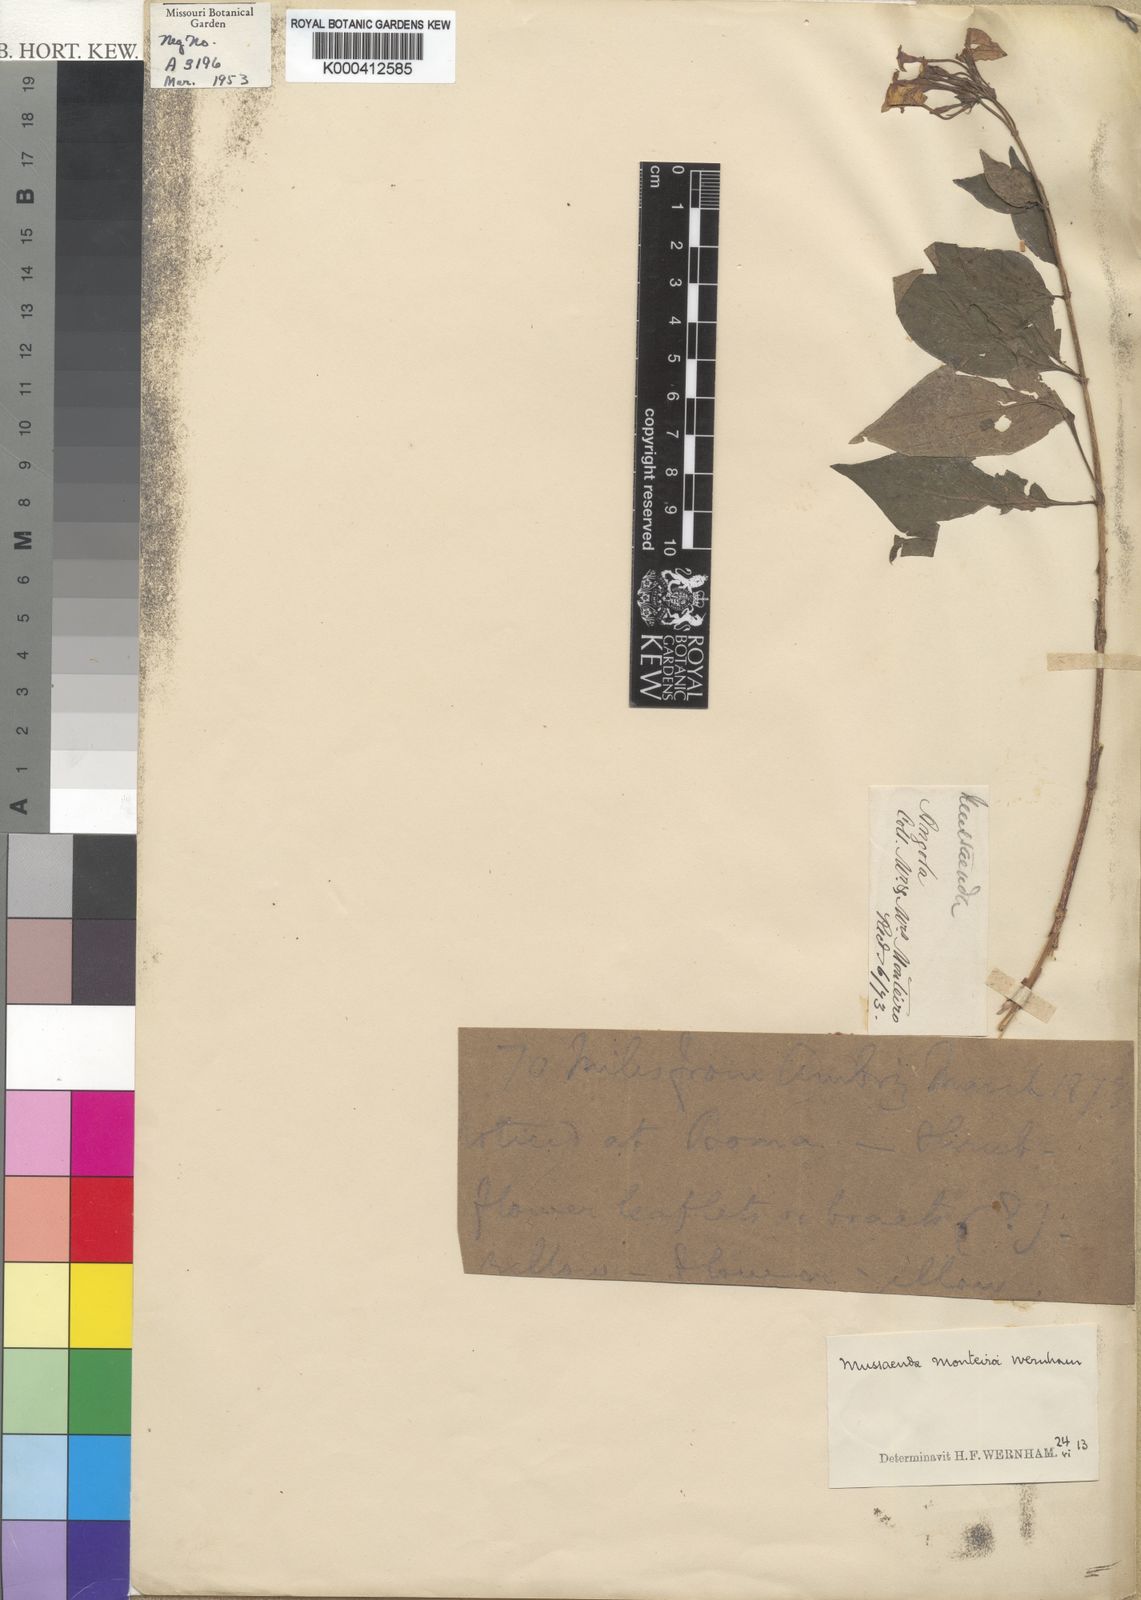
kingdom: Plantae
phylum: Tracheophyta
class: Magnoliopsida
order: Gentianales
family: Rubiaceae
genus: Pseudomussaenda
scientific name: Pseudomussaenda monteiroi
